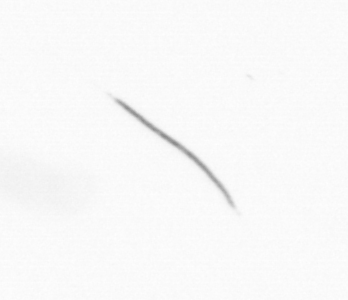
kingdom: Chromista
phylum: Ochrophyta
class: Bacillariophyceae
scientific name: Bacillariophyceae
